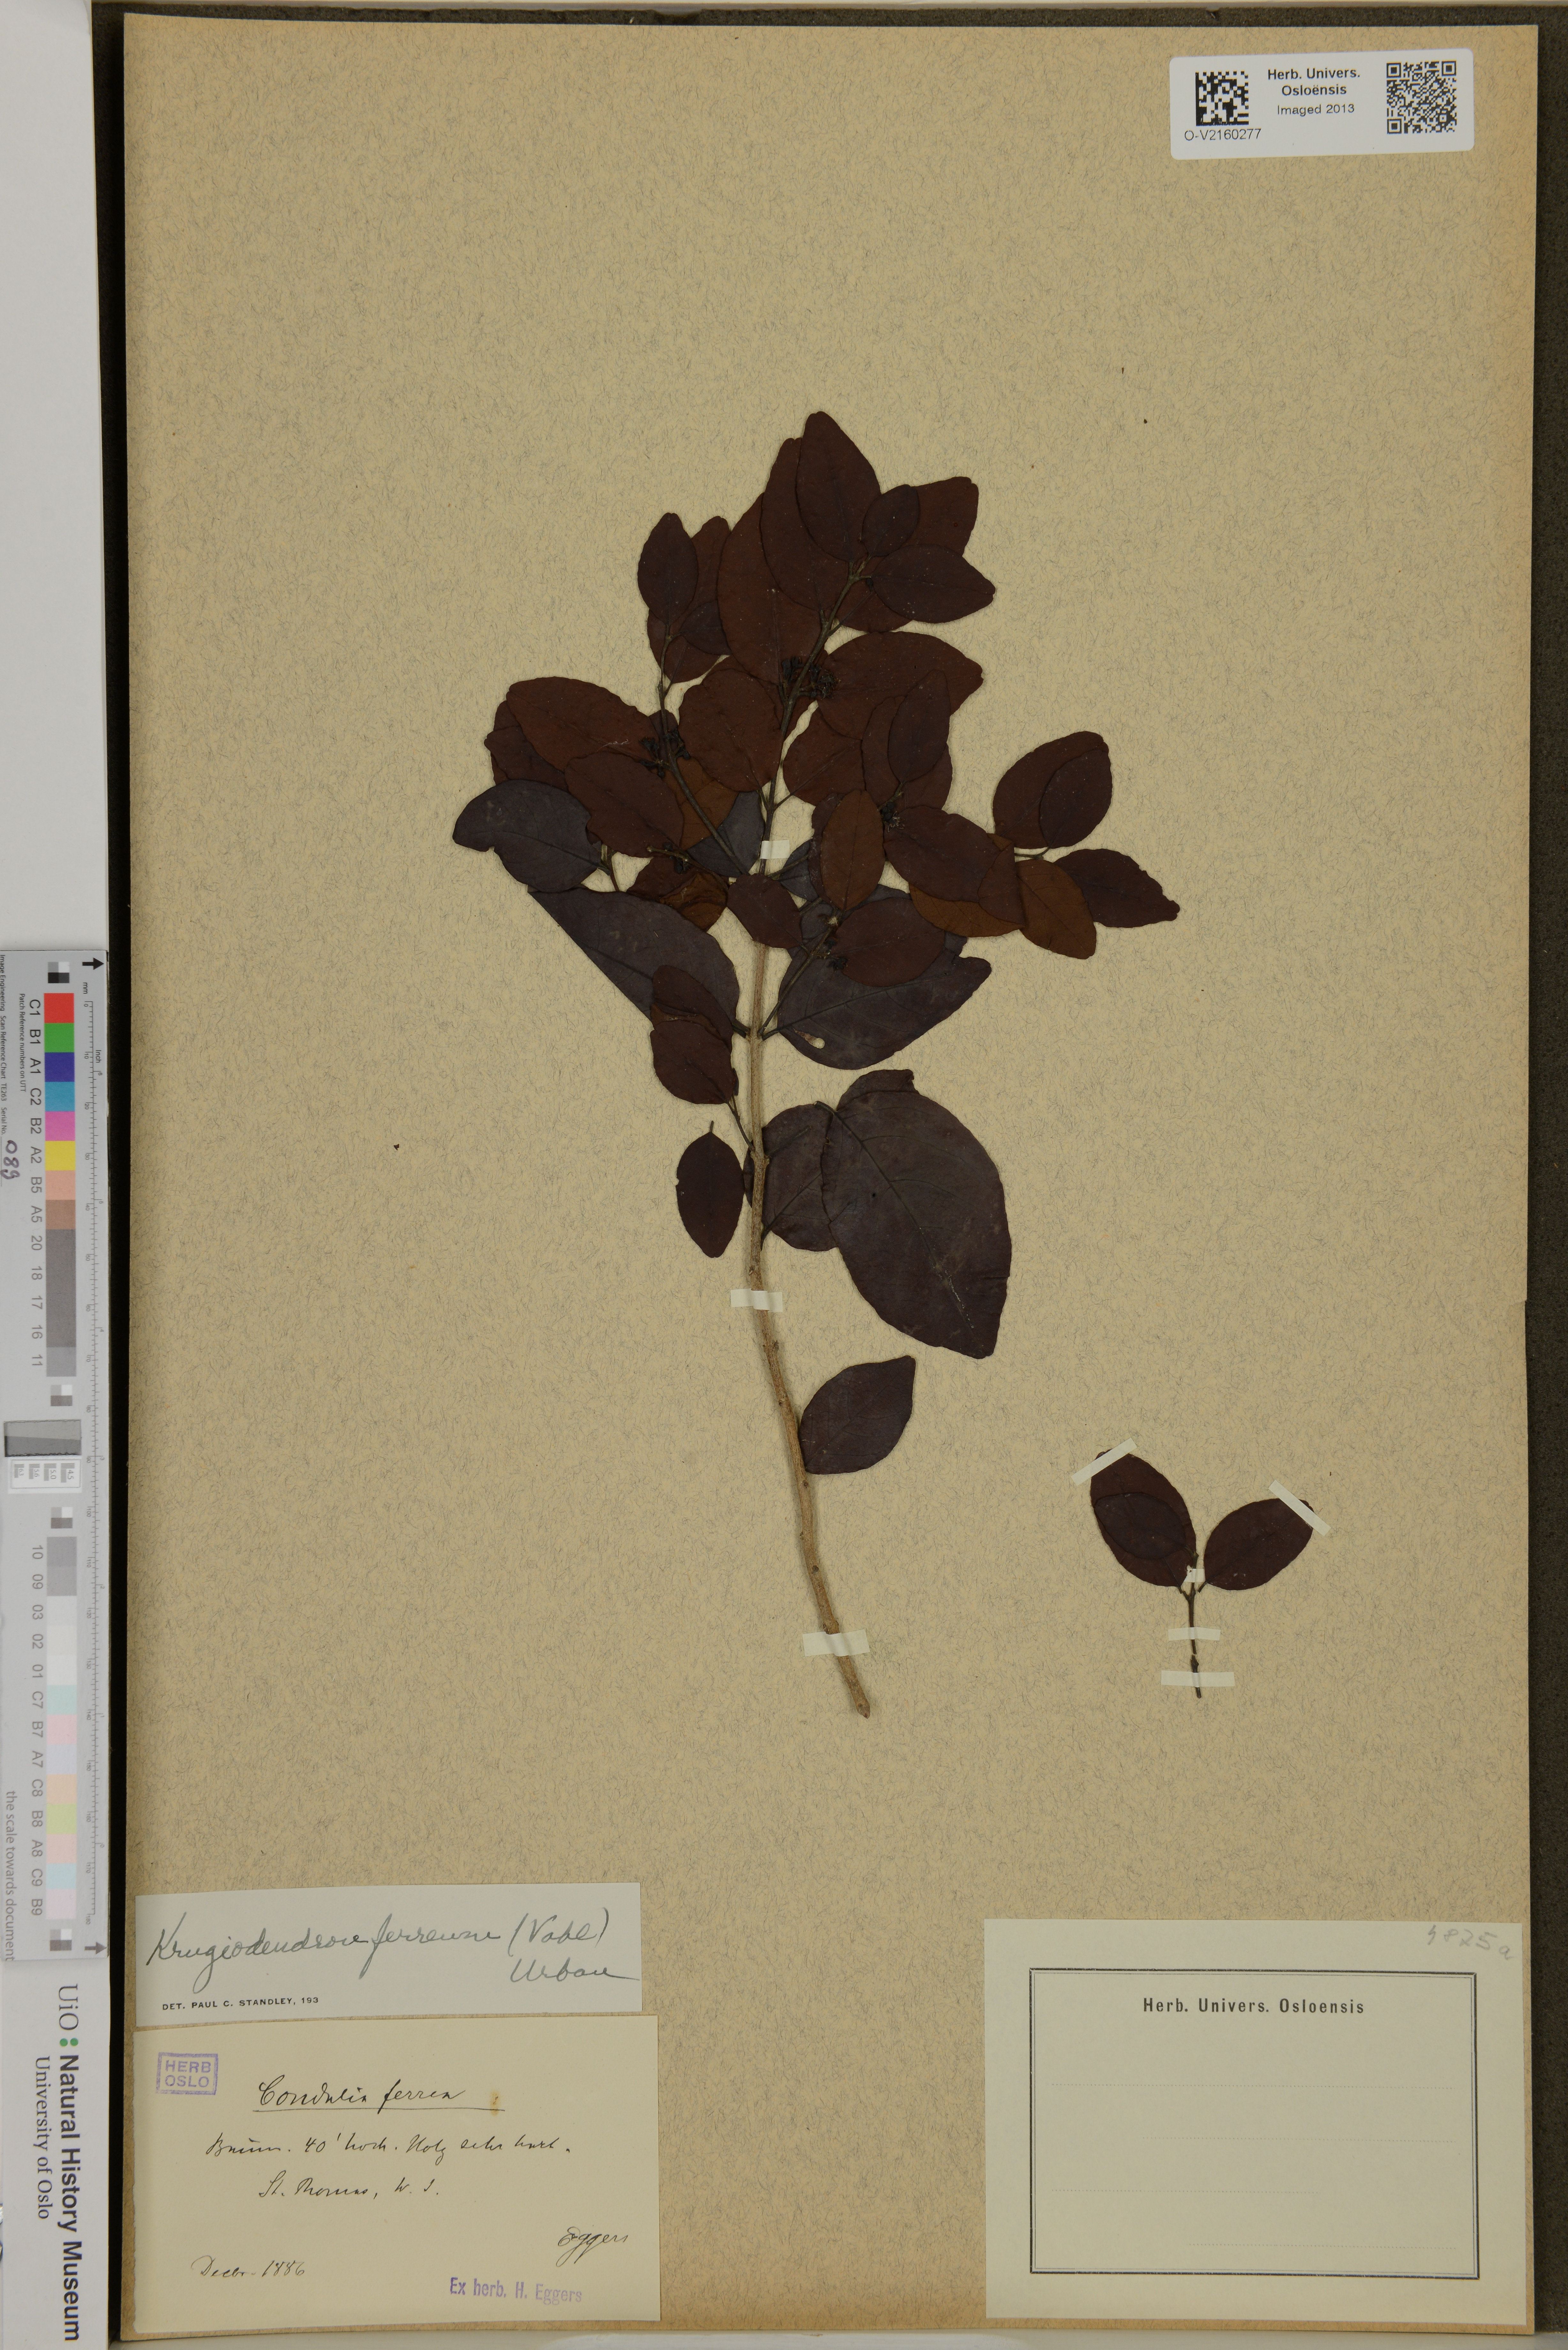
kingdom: Plantae
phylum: Tracheophyta
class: Magnoliopsida
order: Rosales
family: Rhamnaceae
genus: Krugiodendron
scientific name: Krugiodendron ferreum
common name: Iron wood
